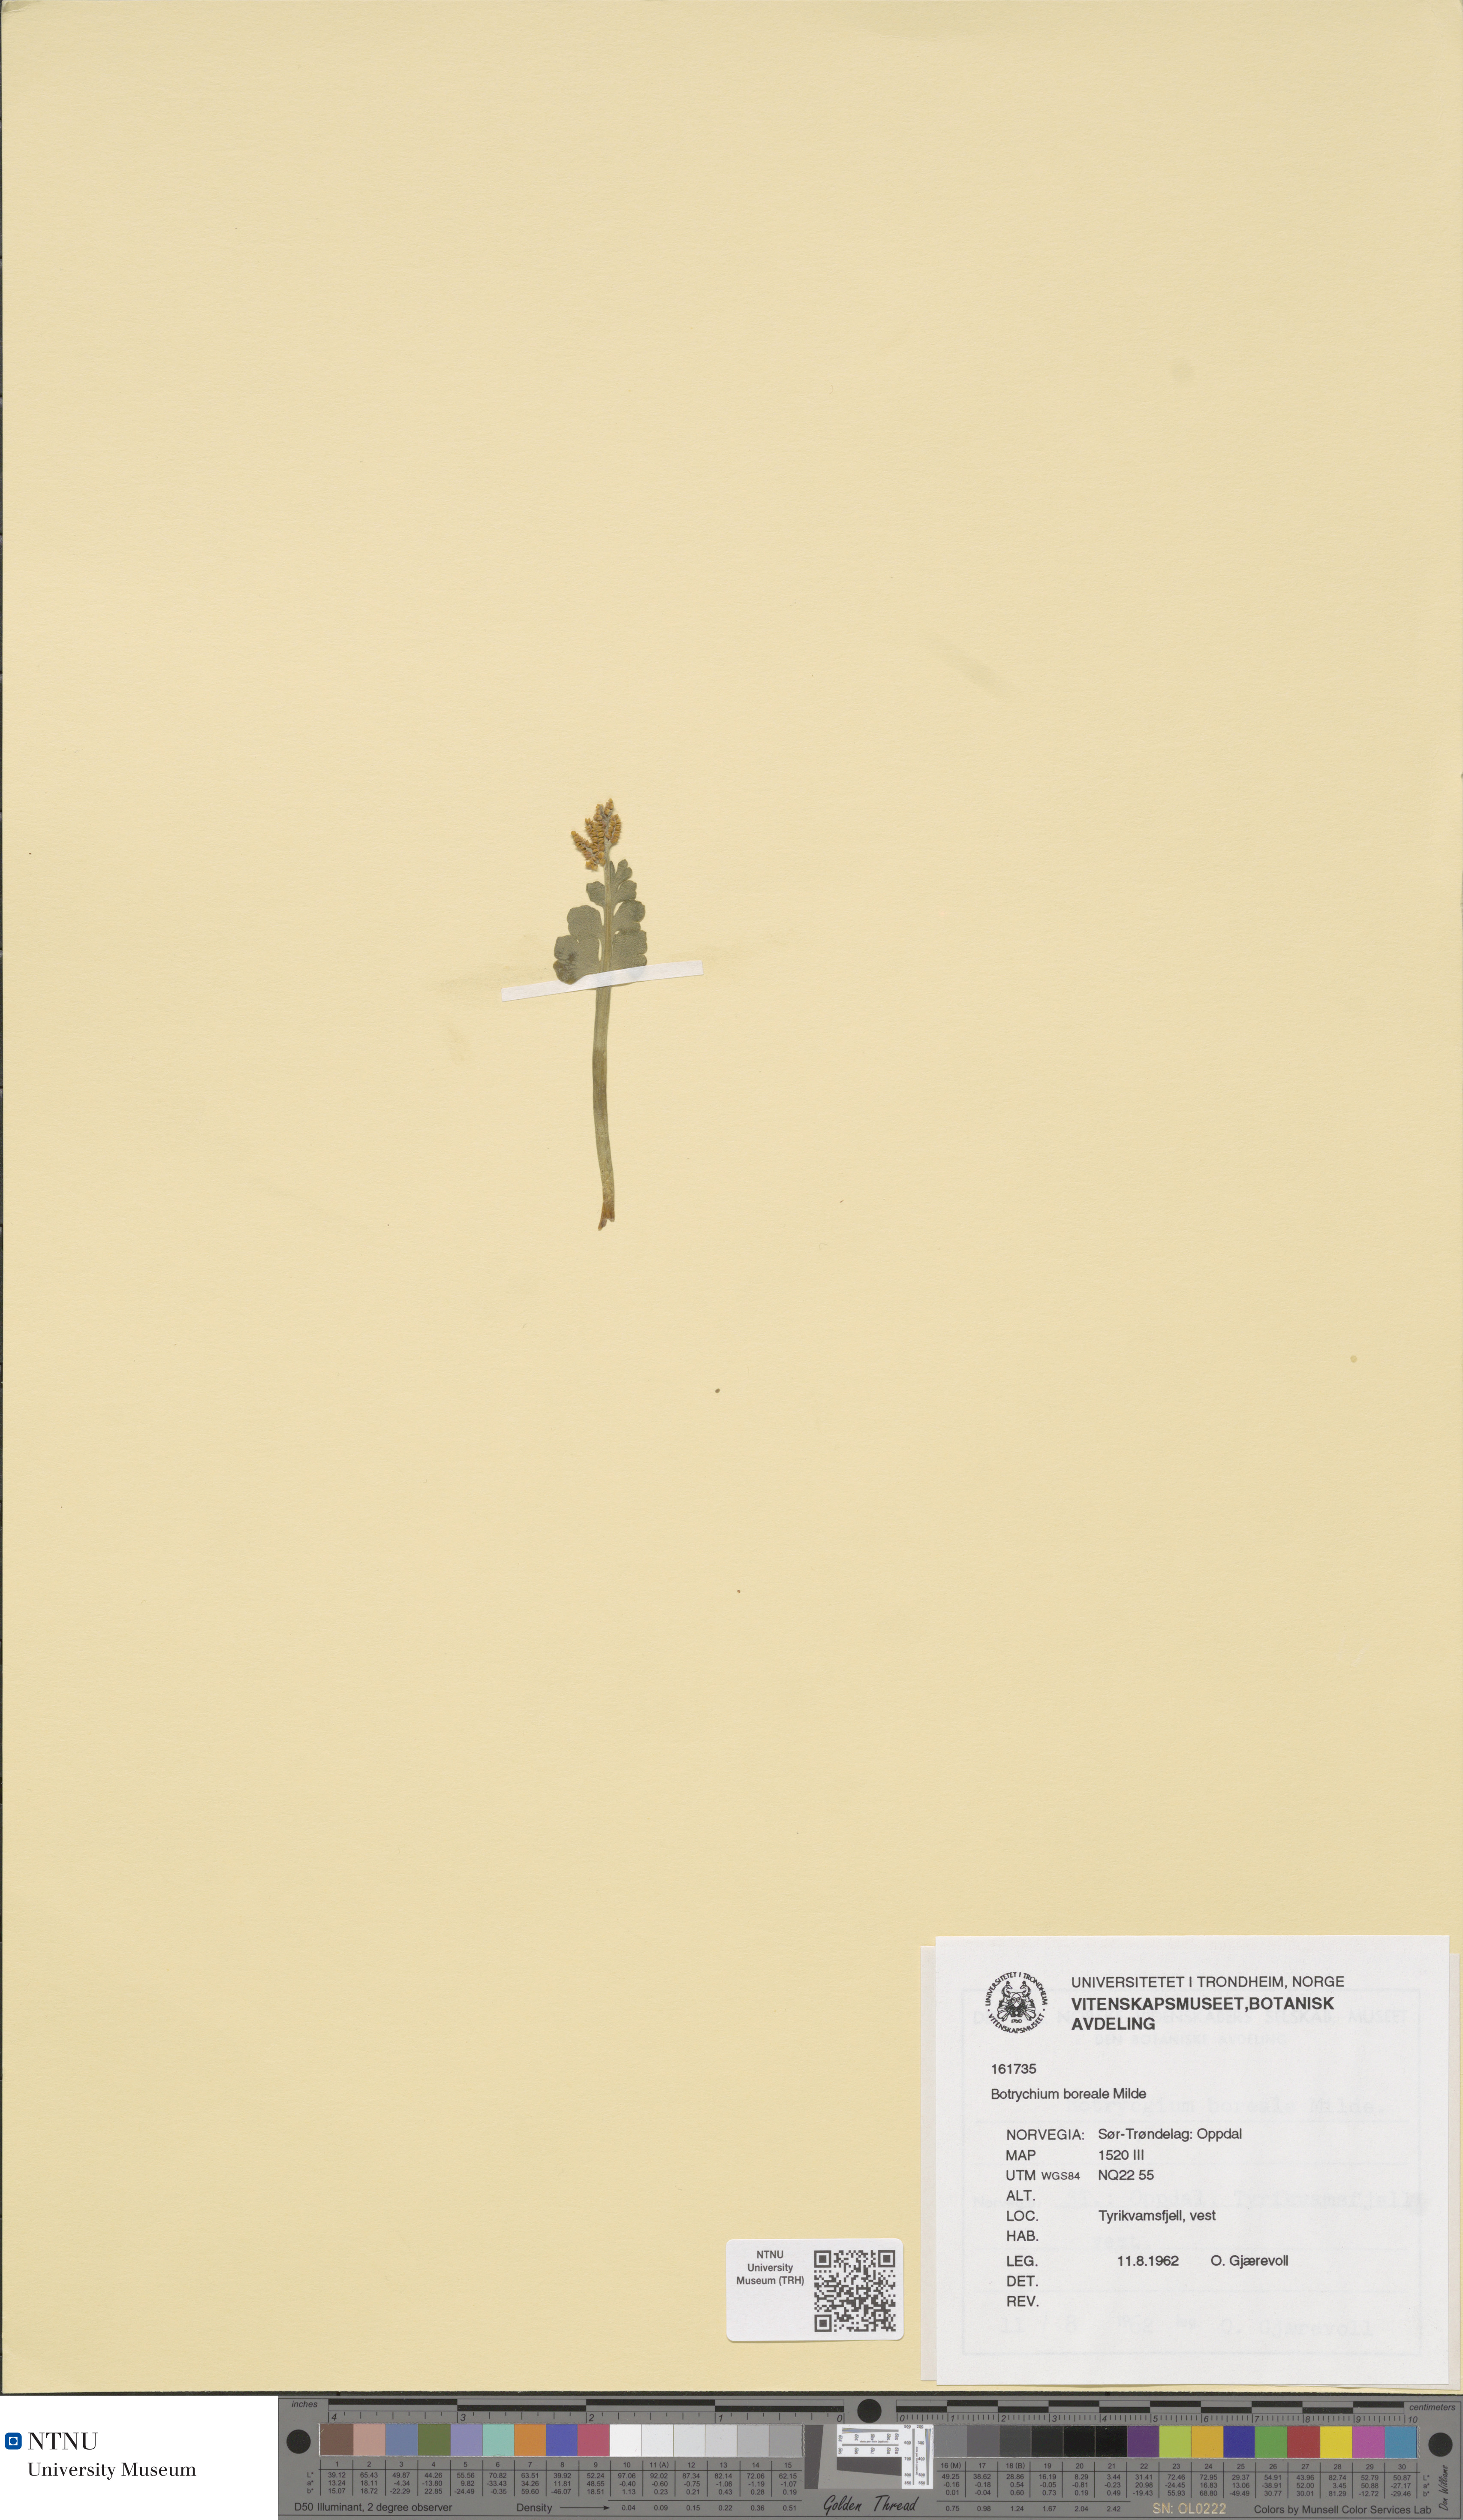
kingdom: Plantae
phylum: Tracheophyta
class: Polypodiopsida
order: Ophioglossales
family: Ophioglossaceae
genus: Botrychium
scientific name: Botrychium boreale
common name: Boreal moonwort
